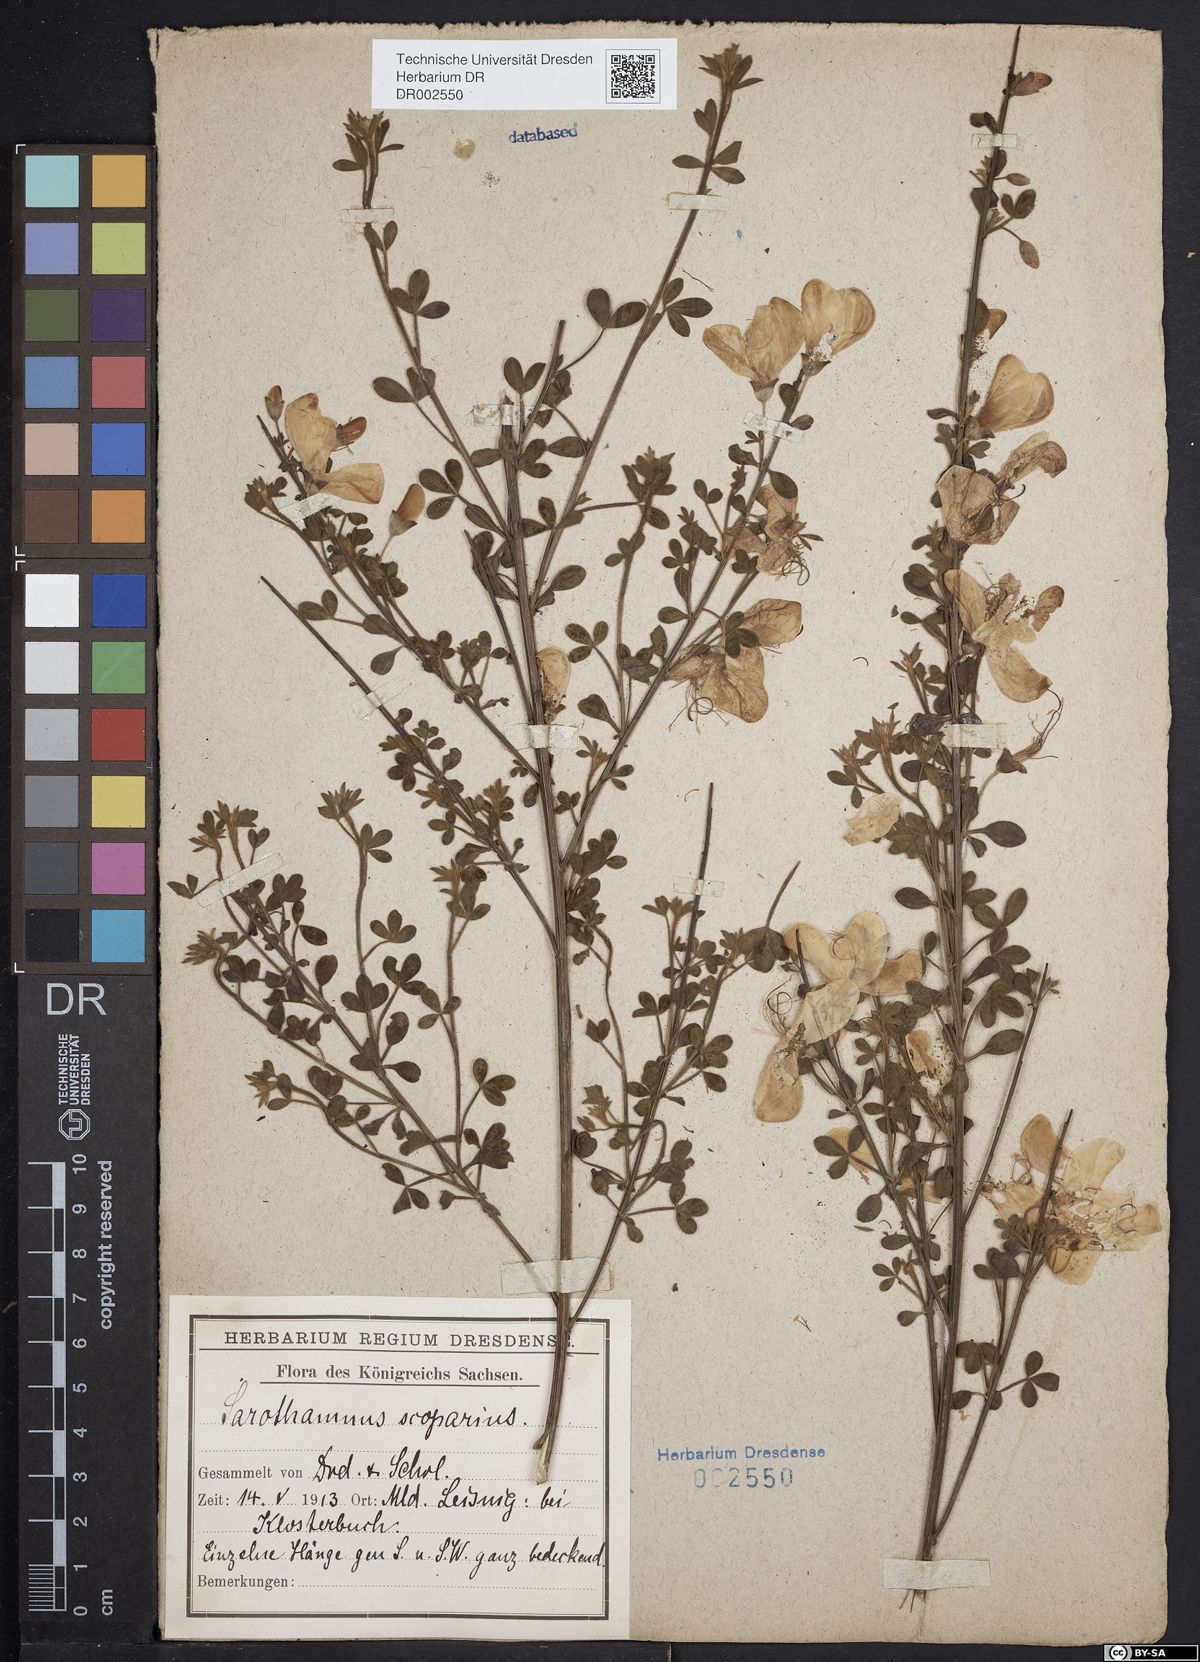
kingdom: Plantae
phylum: Tracheophyta
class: Magnoliopsida
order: Fabales
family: Fabaceae
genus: Cytisus
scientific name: Cytisus scoparius
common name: Scotch broom
